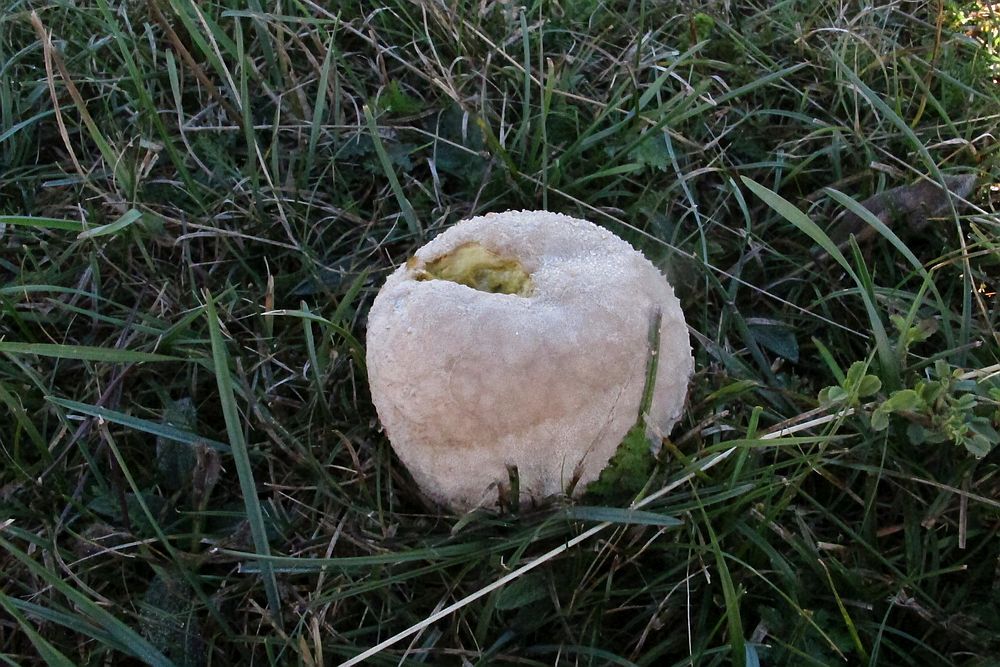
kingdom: Fungi
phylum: Basidiomycota
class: Agaricomycetes
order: Agaricales
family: Lycoperdaceae
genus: Bovistella
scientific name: Bovistella utriformis
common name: skællet støvbold
